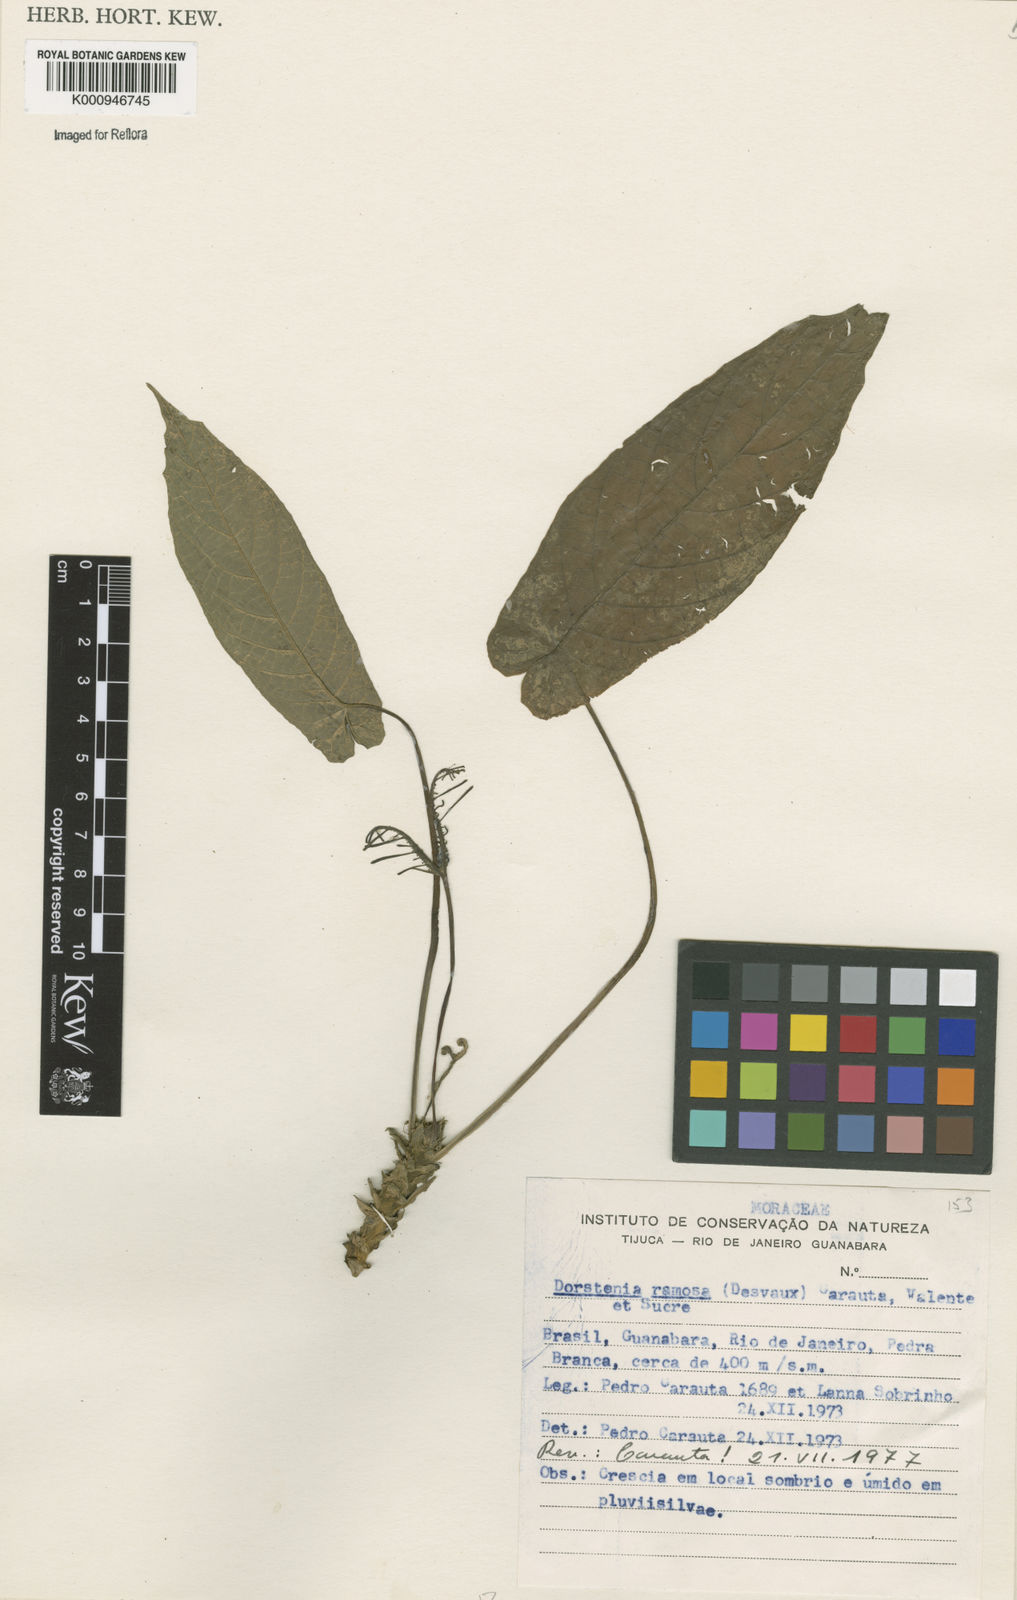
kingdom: Plantae
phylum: Tracheophyta
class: Magnoliopsida
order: Rosales
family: Moraceae
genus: Dorstenia
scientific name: Dorstenia ramosa
